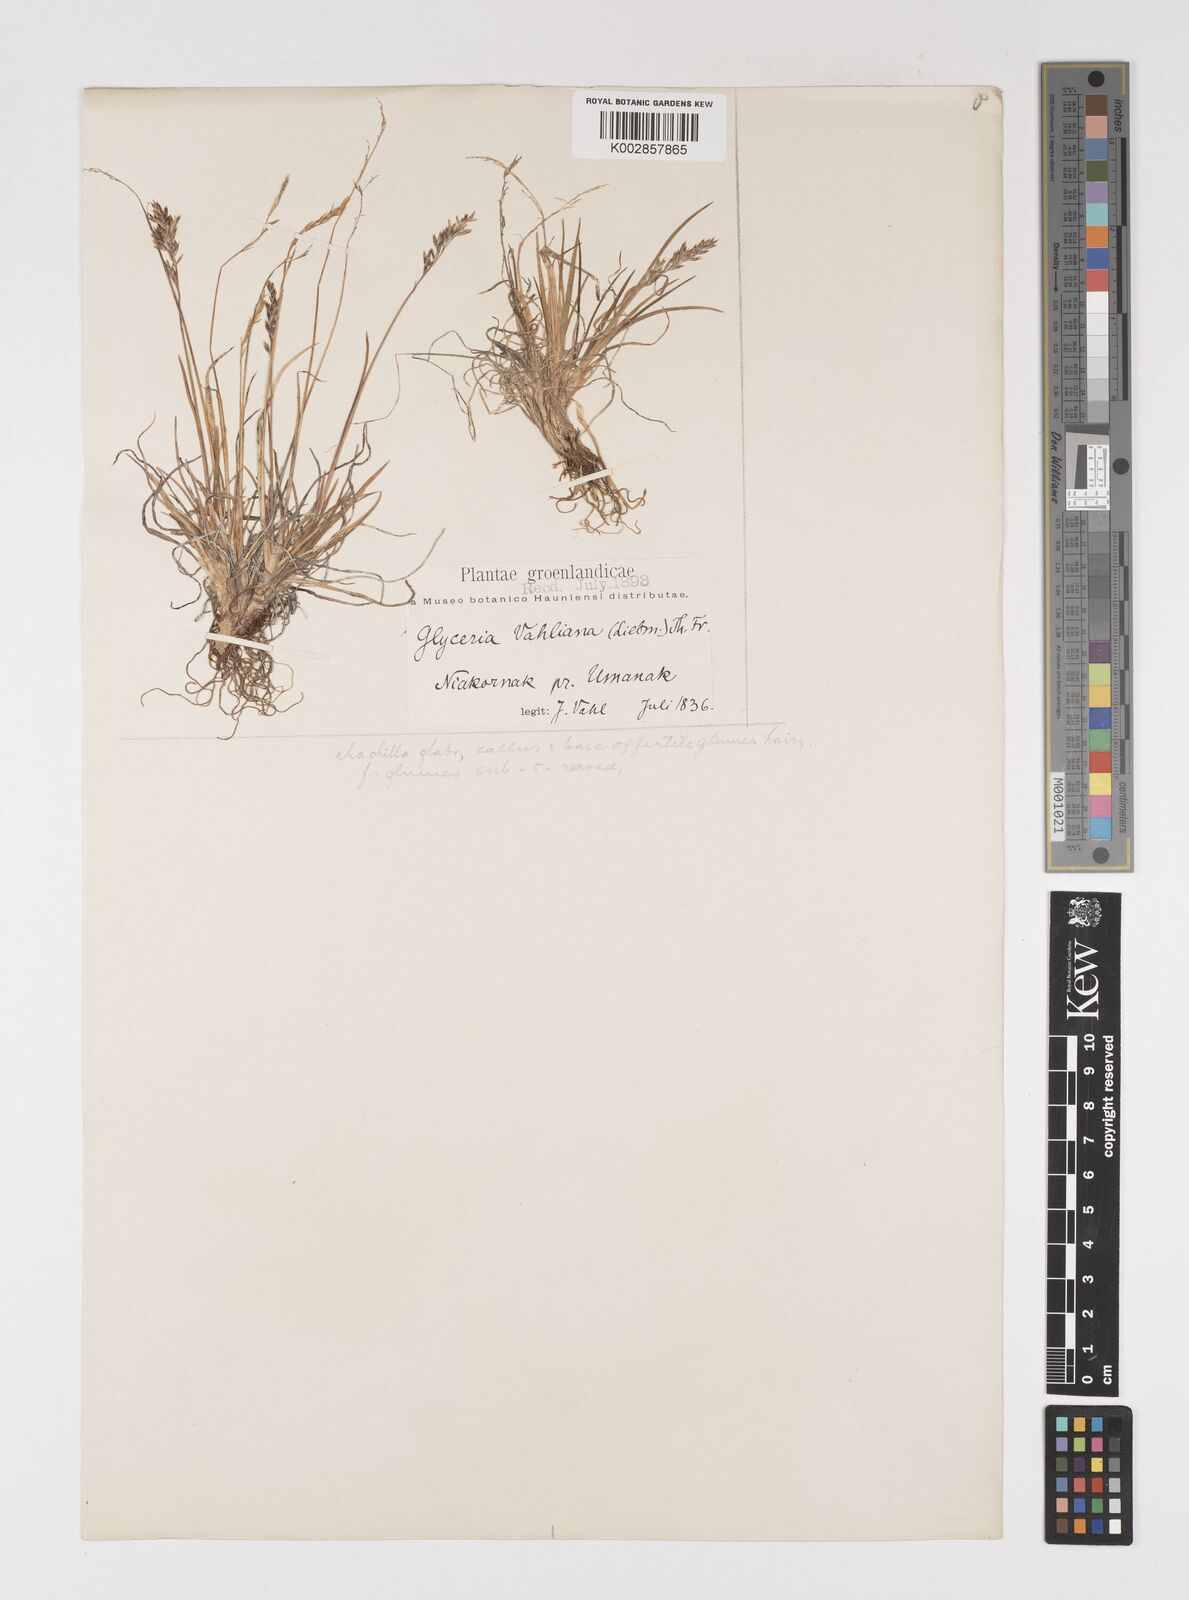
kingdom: Plantae
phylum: Tracheophyta
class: Liliopsida
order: Poales
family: Poaceae
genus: Puccinellia
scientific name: Puccinellia vahliana
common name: Vahl's alkaligrass
